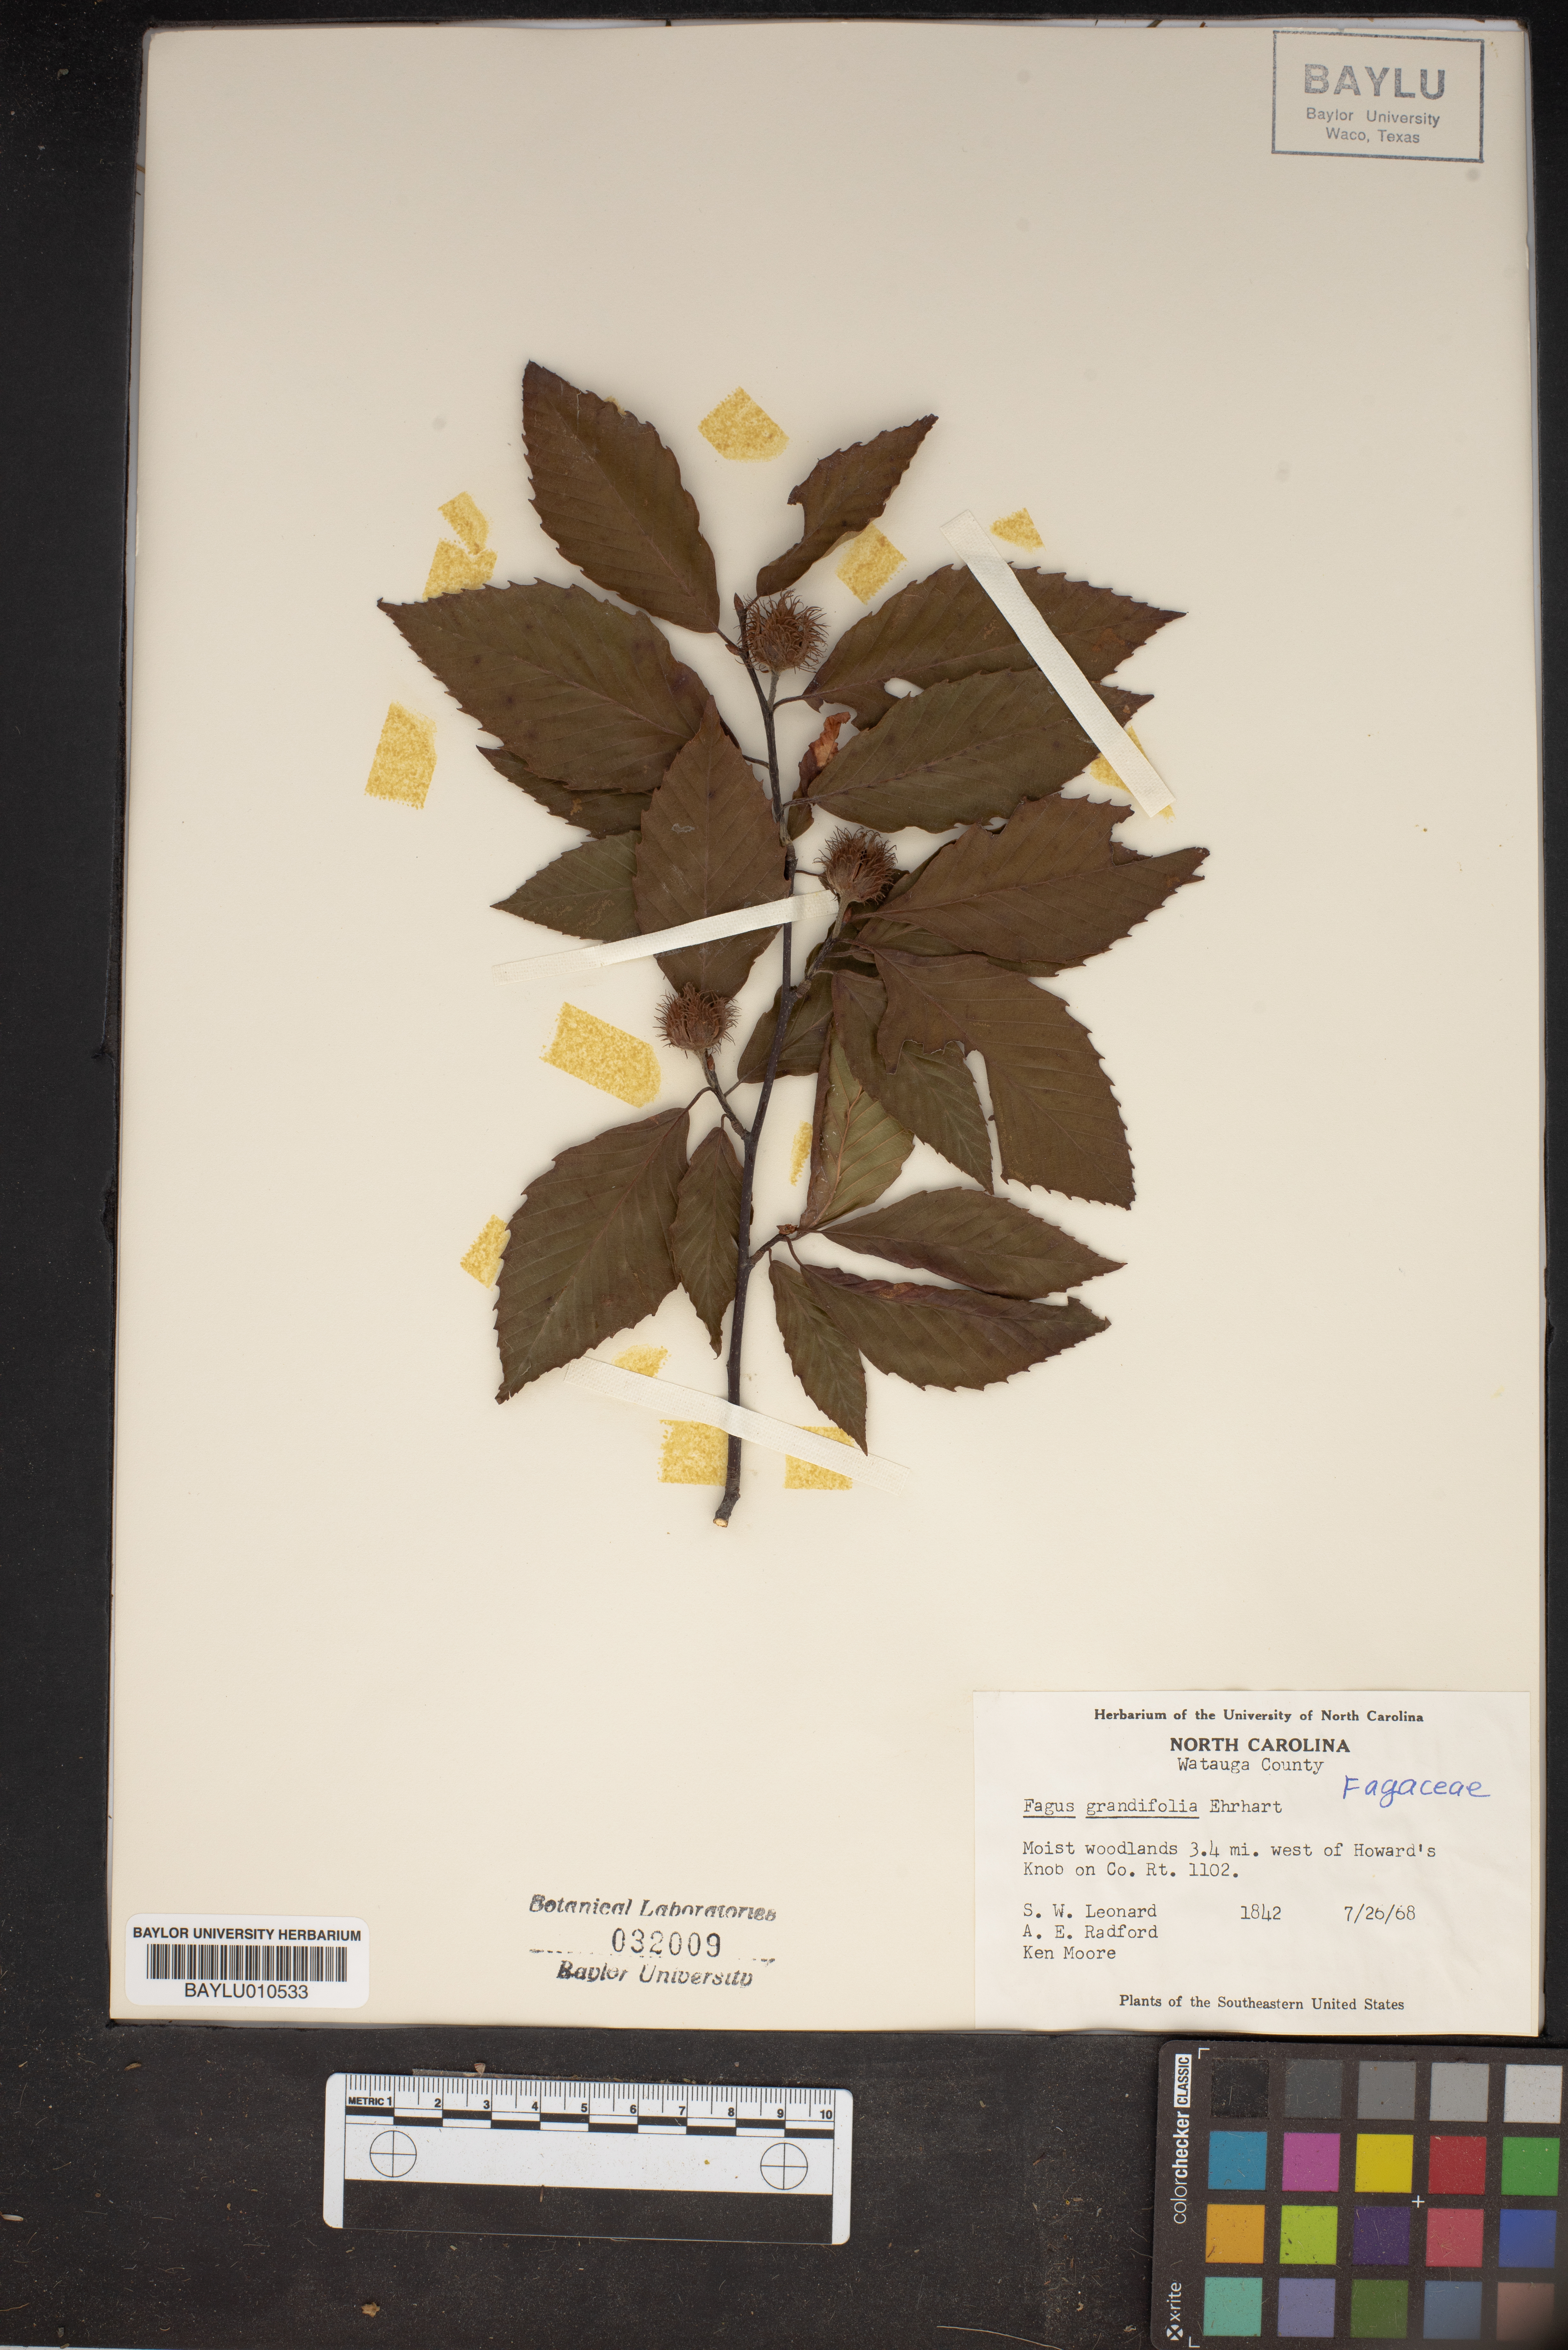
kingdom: Plantae
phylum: Tracheophyta
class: Magnoliopsida
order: Fagales
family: Fagaceae
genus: Fagus
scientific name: Fagus grandifolia
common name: American beech
